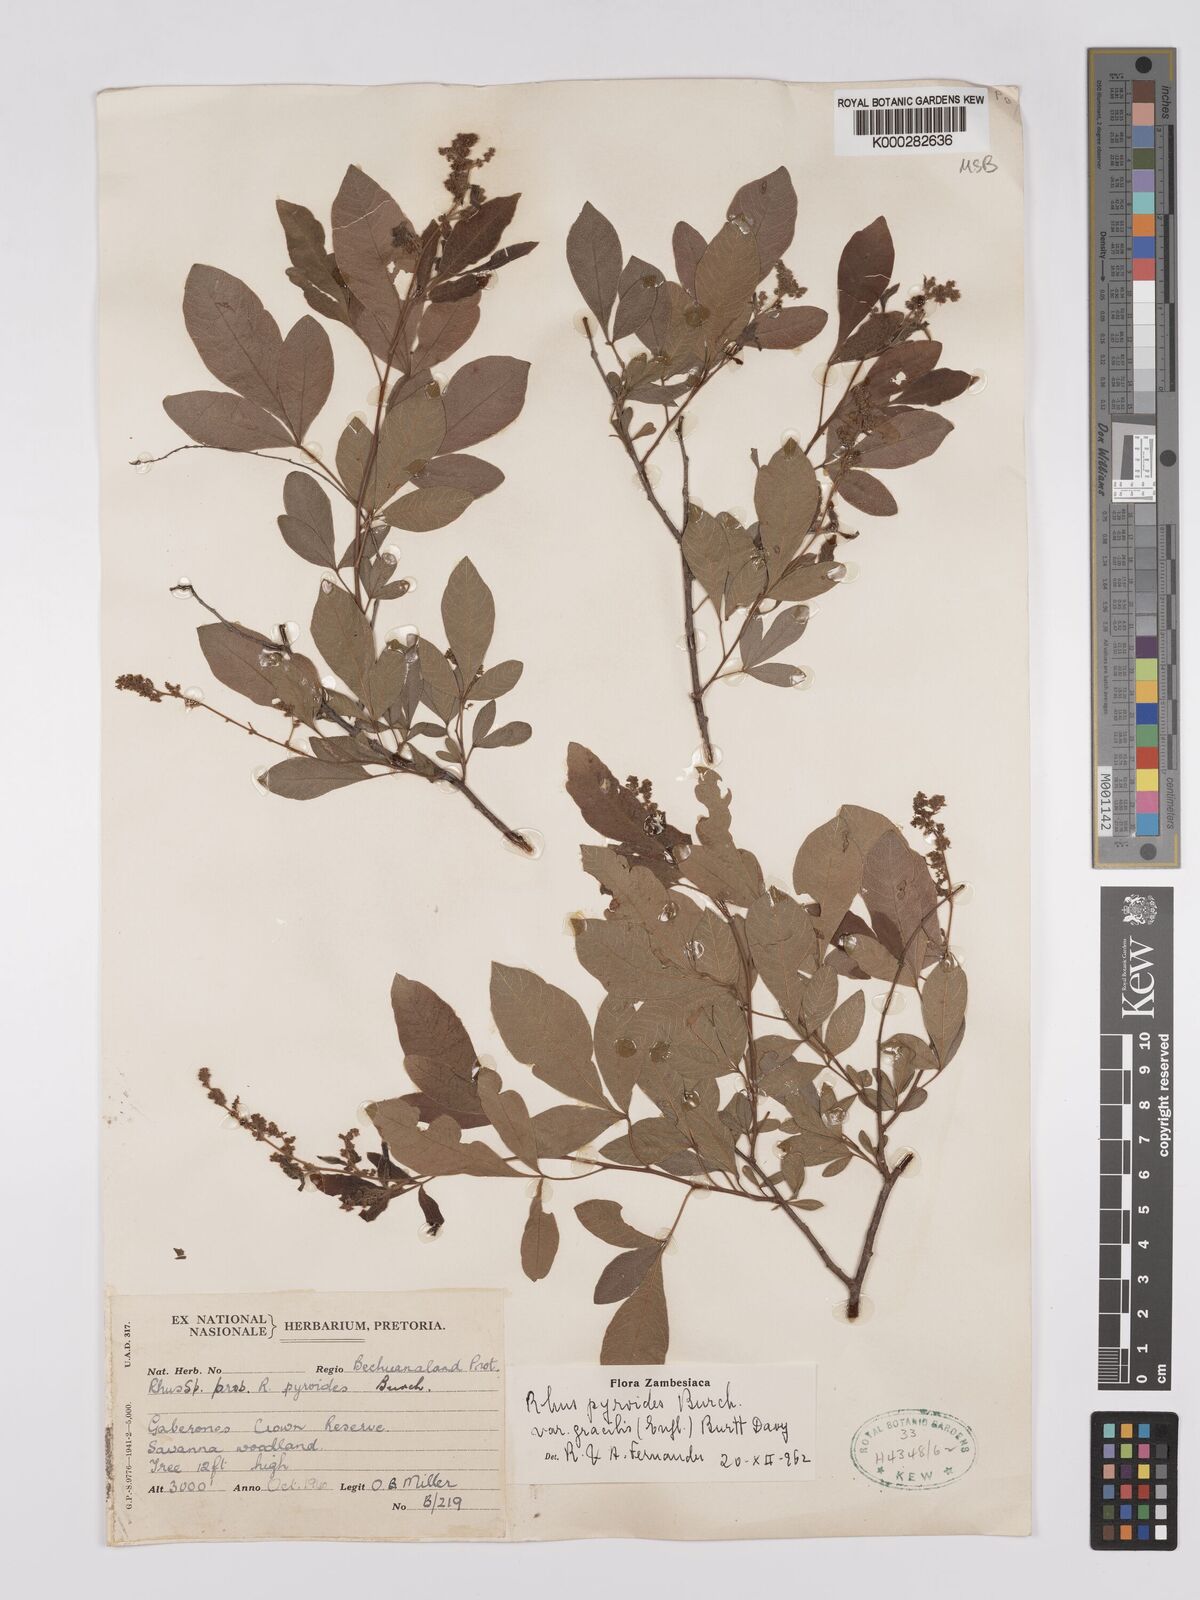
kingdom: Plantae
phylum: Tracheophyta
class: Magnoliopsida
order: Sapindales
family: Anacardiaceae
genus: Searsia
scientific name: Searsia pyroides
